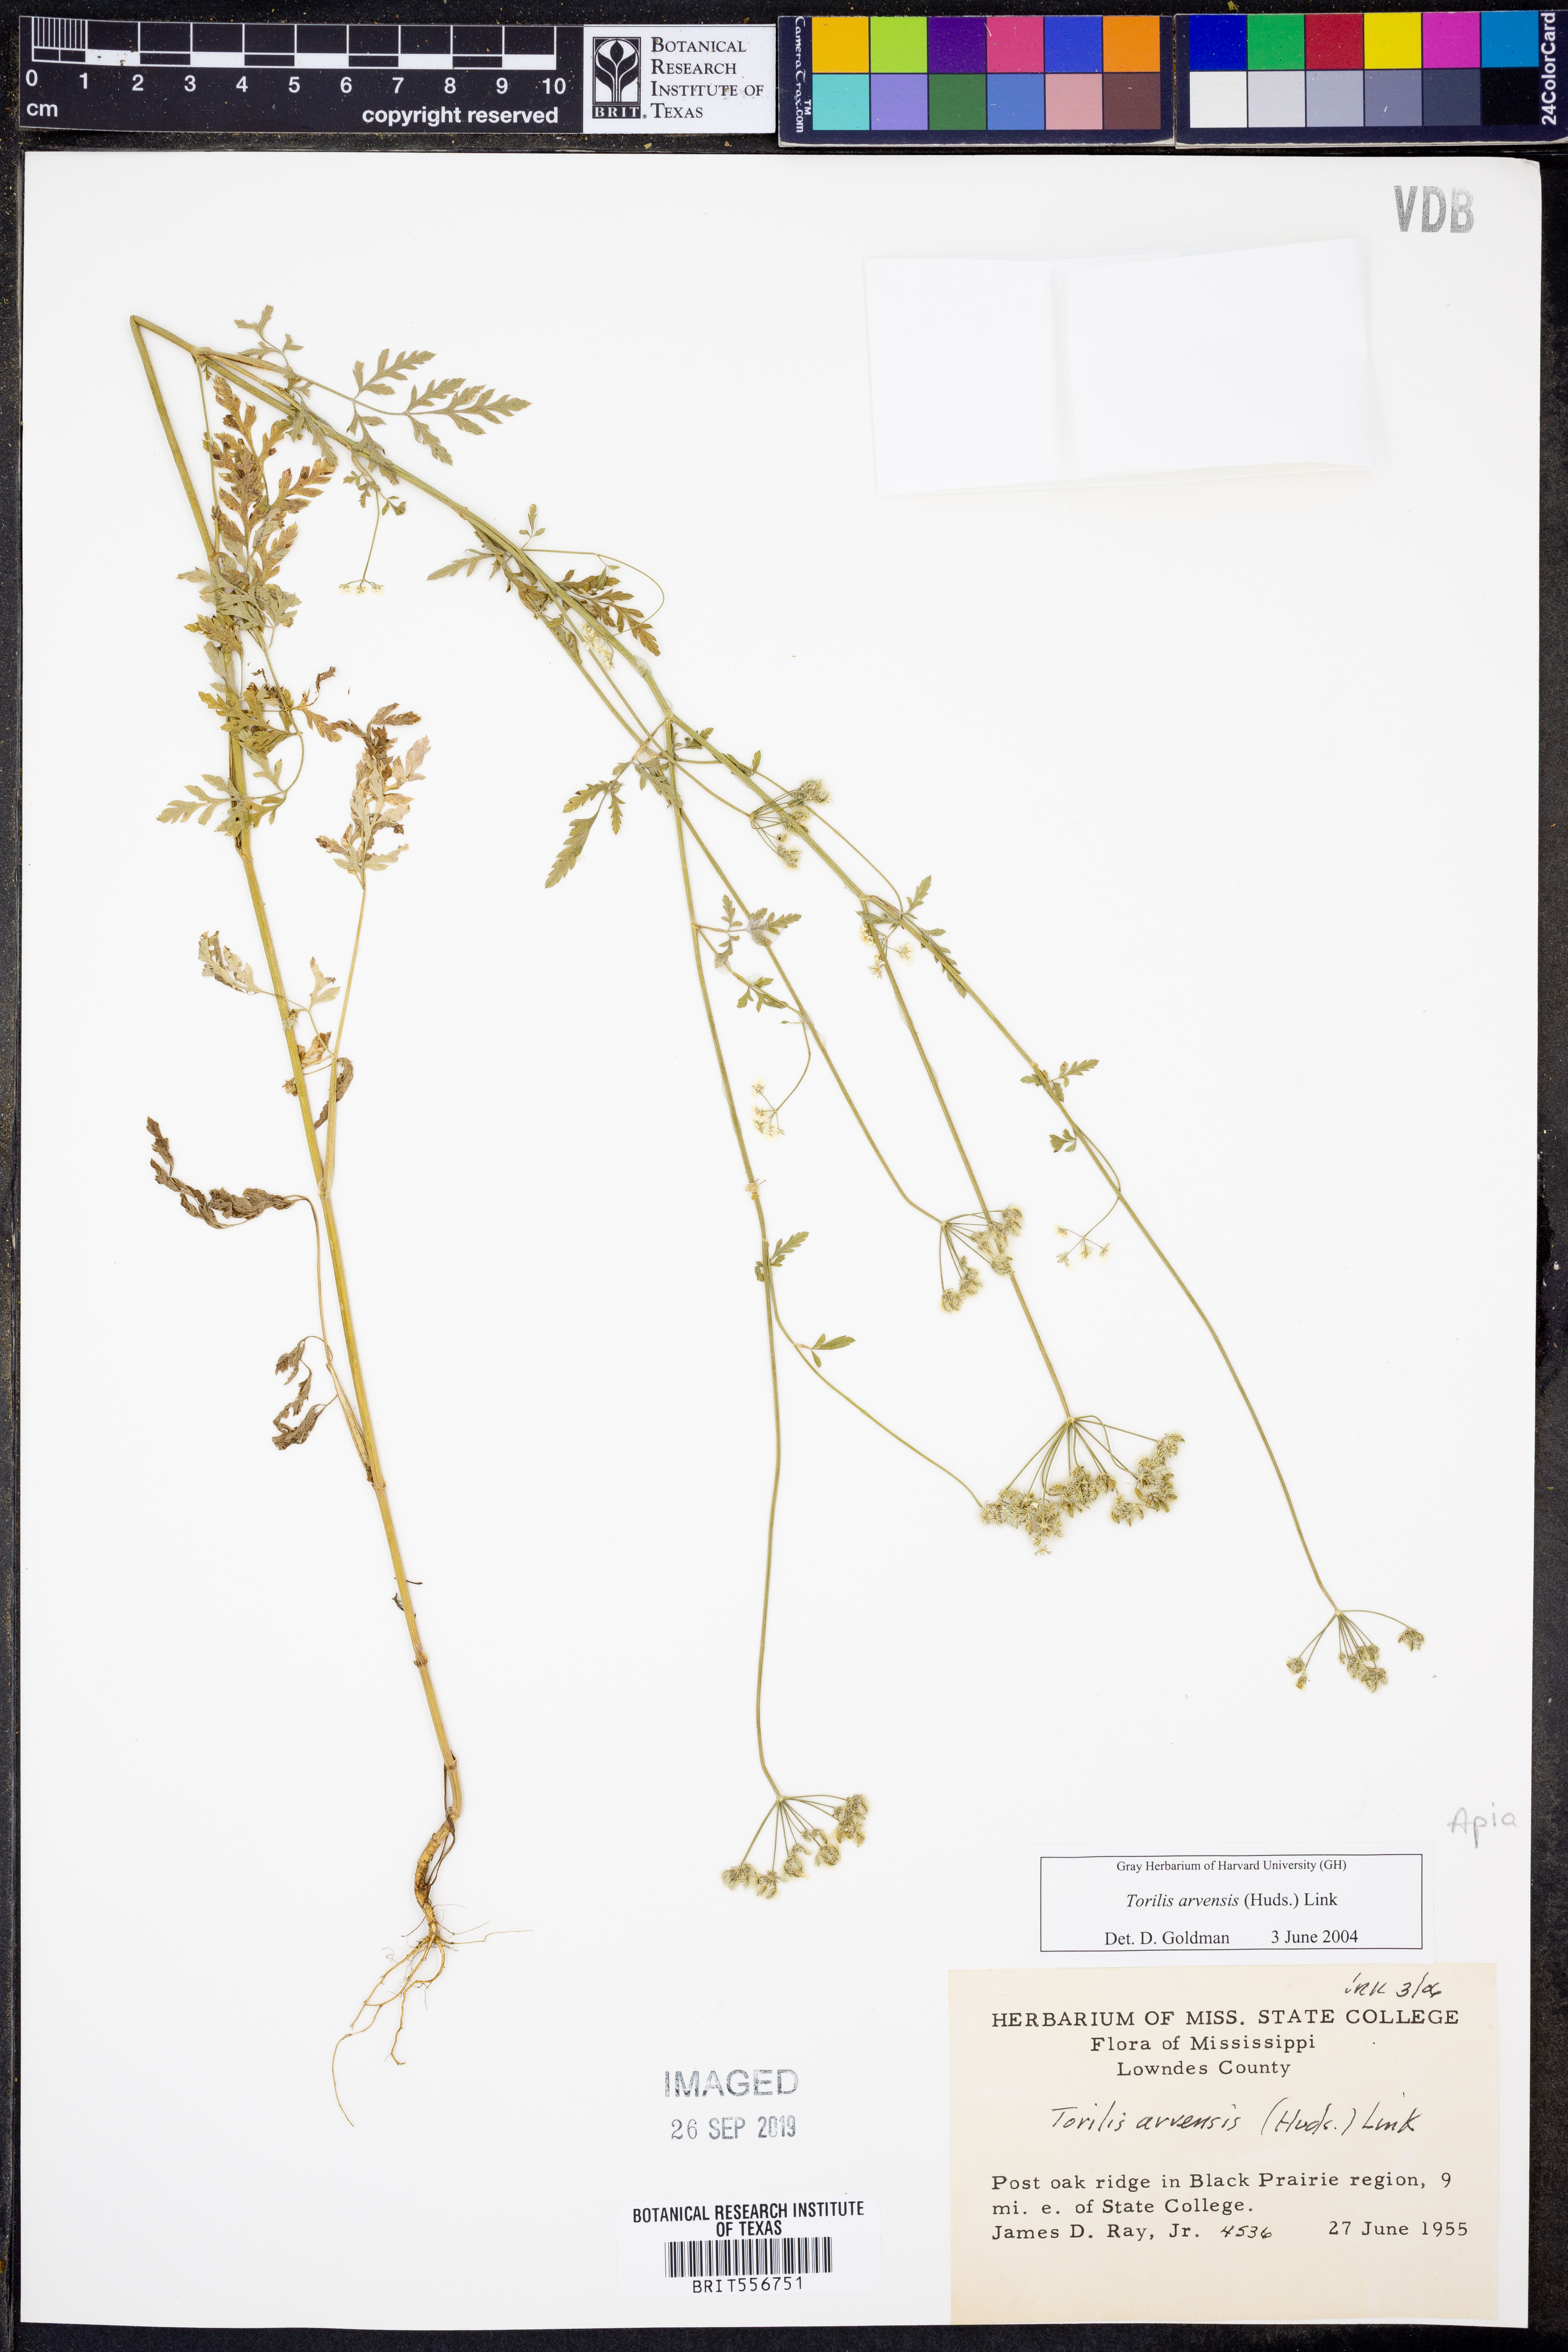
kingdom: Plantae
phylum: Tracheophyta
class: Magnoliopsida
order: Apiales
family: Apiaceae
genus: Torilis
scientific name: Torilis arvensis
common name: Spreading hedge-parsley
